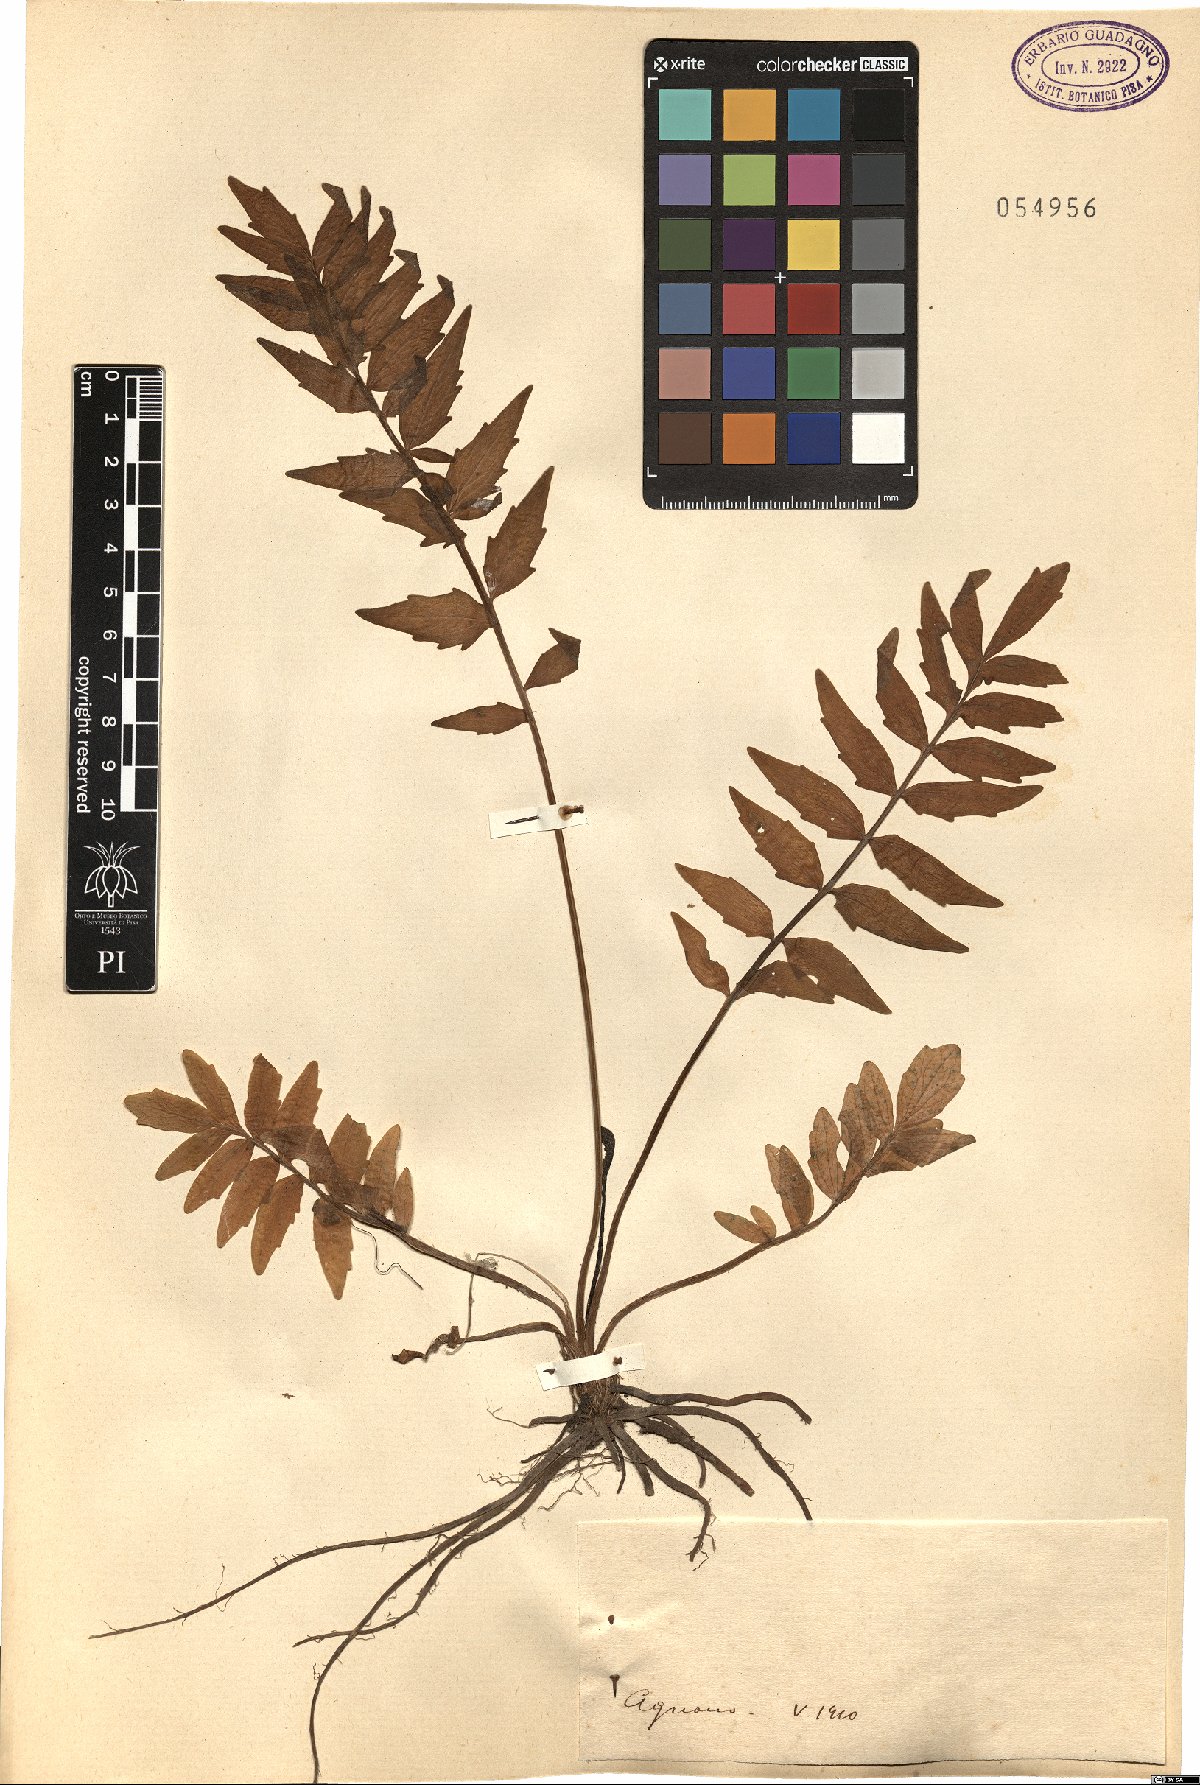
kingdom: Plantae
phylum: Tracheophyta
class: Magnoliopsida
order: Dipsacales
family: Caprifoliaceae
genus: Valeriana
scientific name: Valeriana
